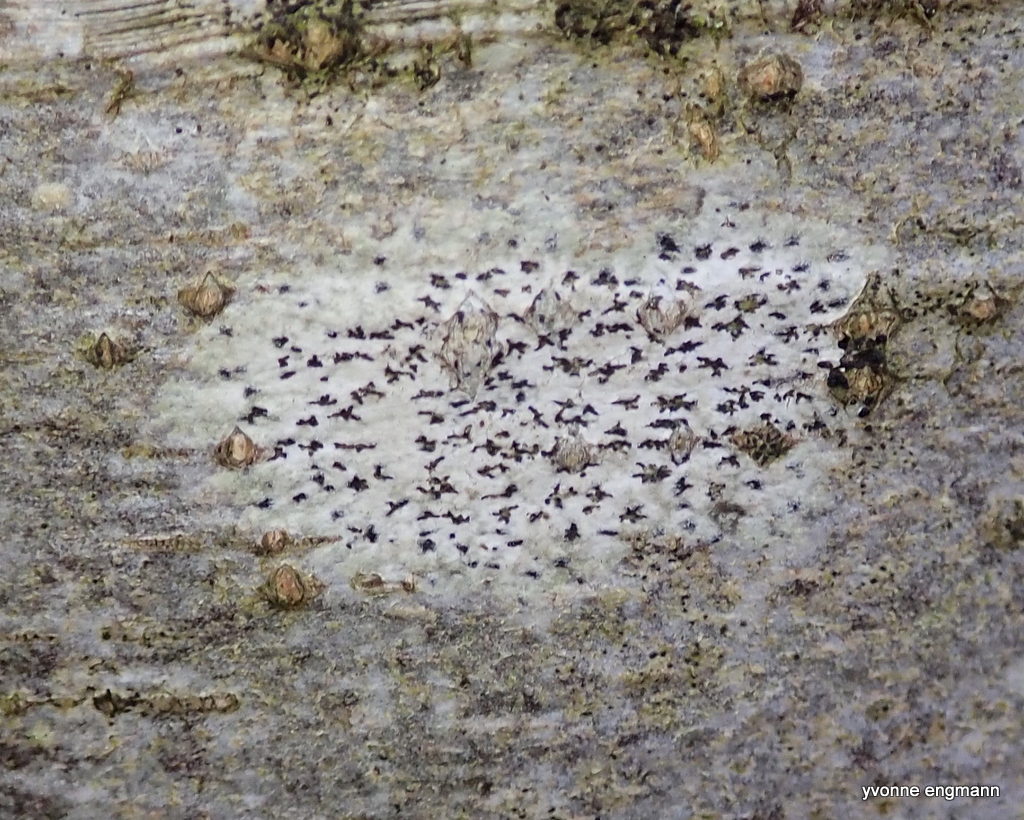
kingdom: Fungi
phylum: Ascomycota
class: Arthoniomycetes
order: Arthoniales
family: Arthoniaceae
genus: Arthonia
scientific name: Arthonia radiata
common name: stjerne-pletlav
